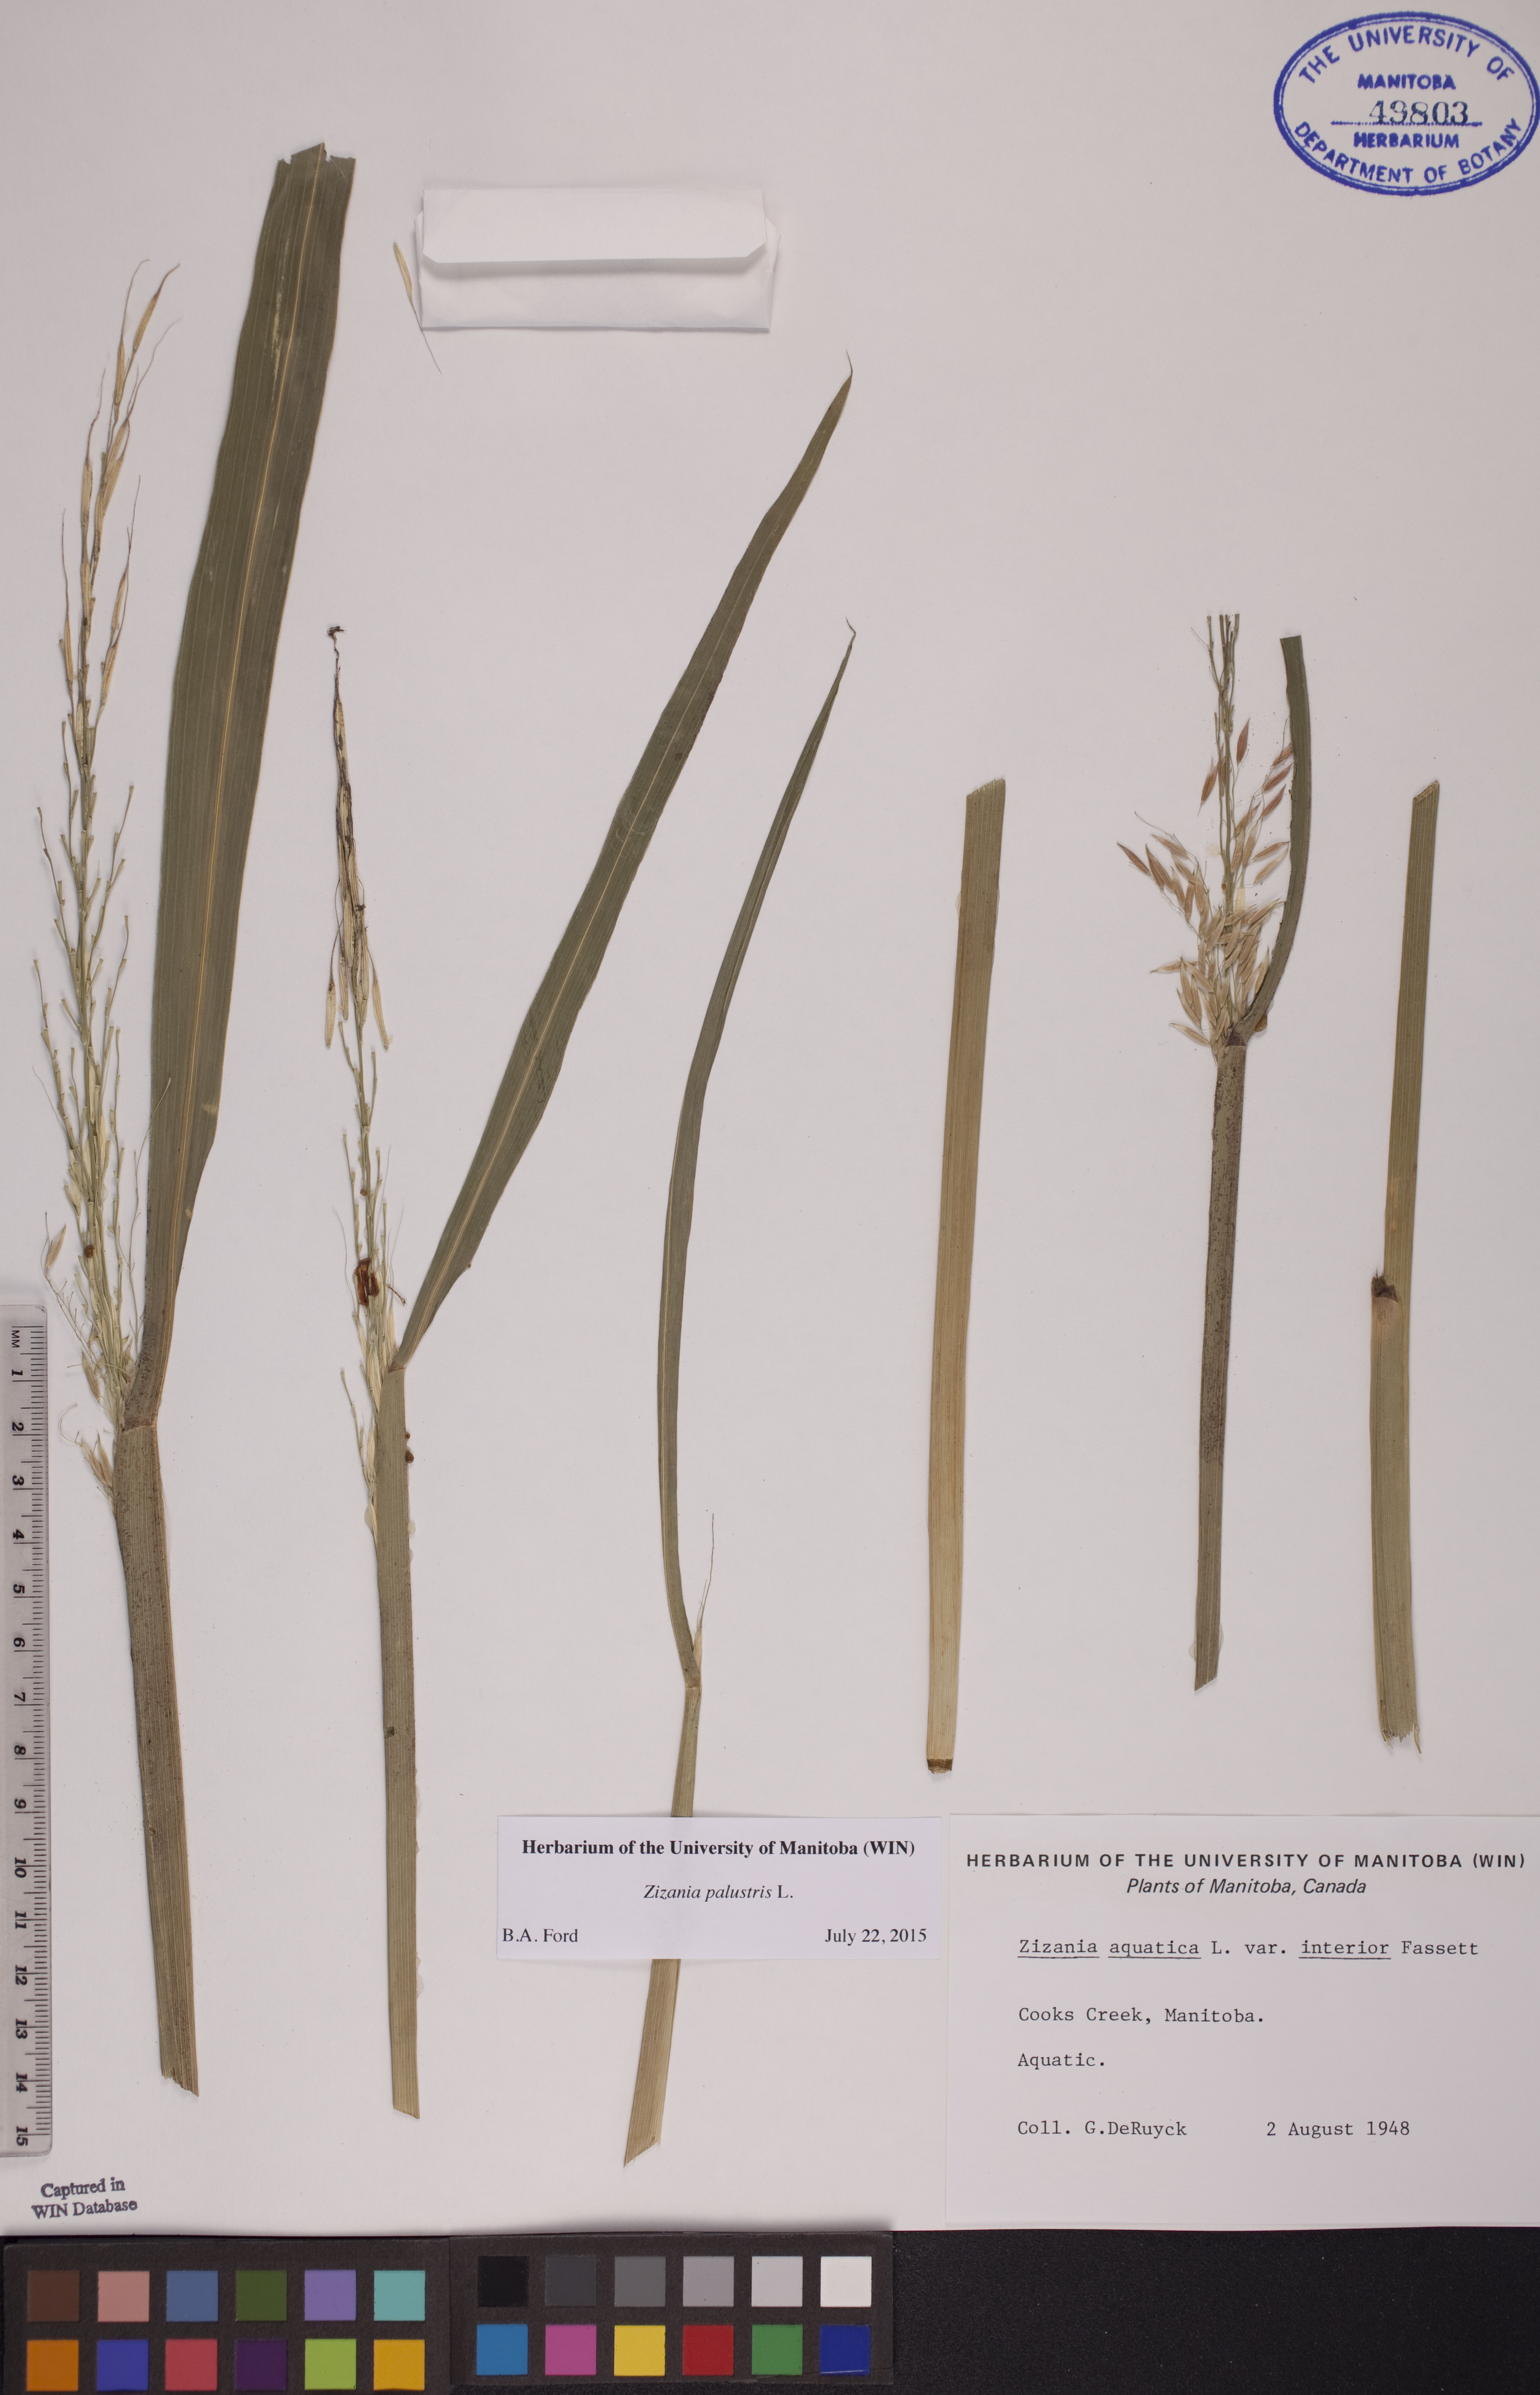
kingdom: Plantae
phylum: Tracheophyta
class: Liliopsida
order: Poales
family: Poaceae
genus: Zizania
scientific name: Zizania palustris
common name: Northern wild rice
